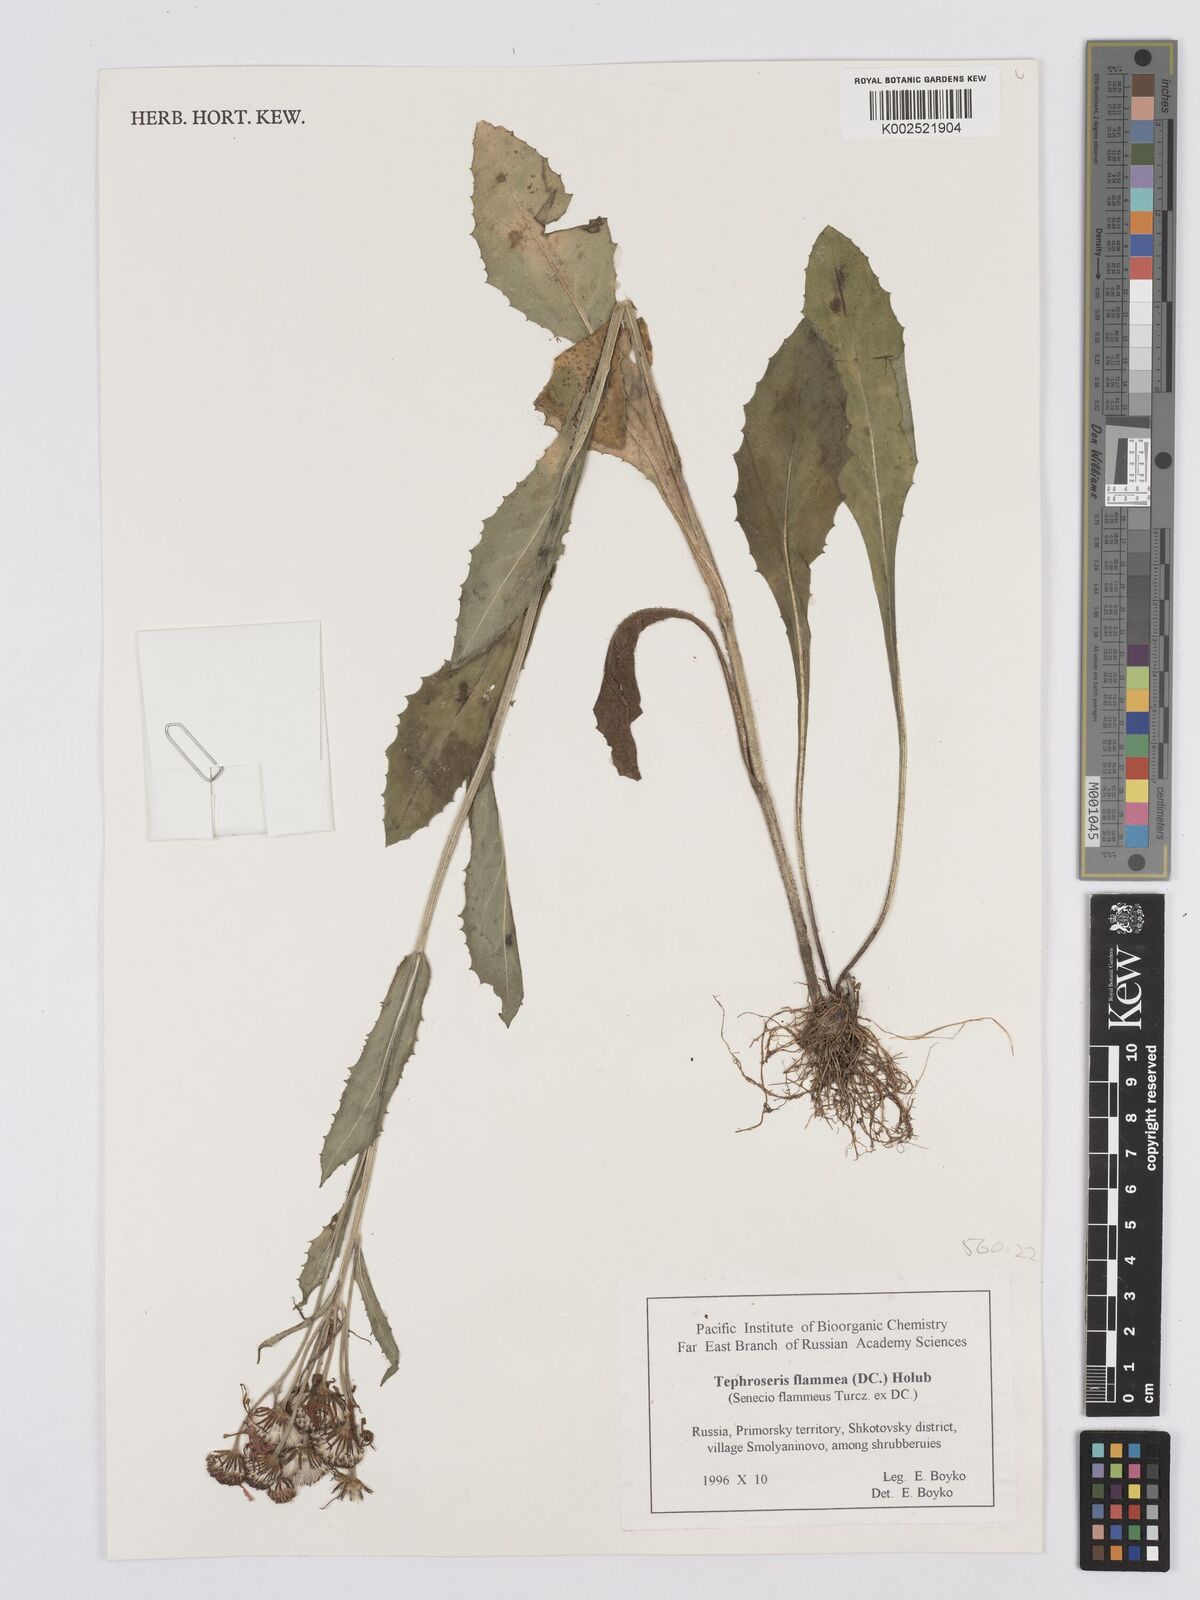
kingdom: Plantae
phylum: Tracheophyta
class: Magnoliopsida
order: Asterales
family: Asteraceae
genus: Tephroseris
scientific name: Tephroseris flammea
